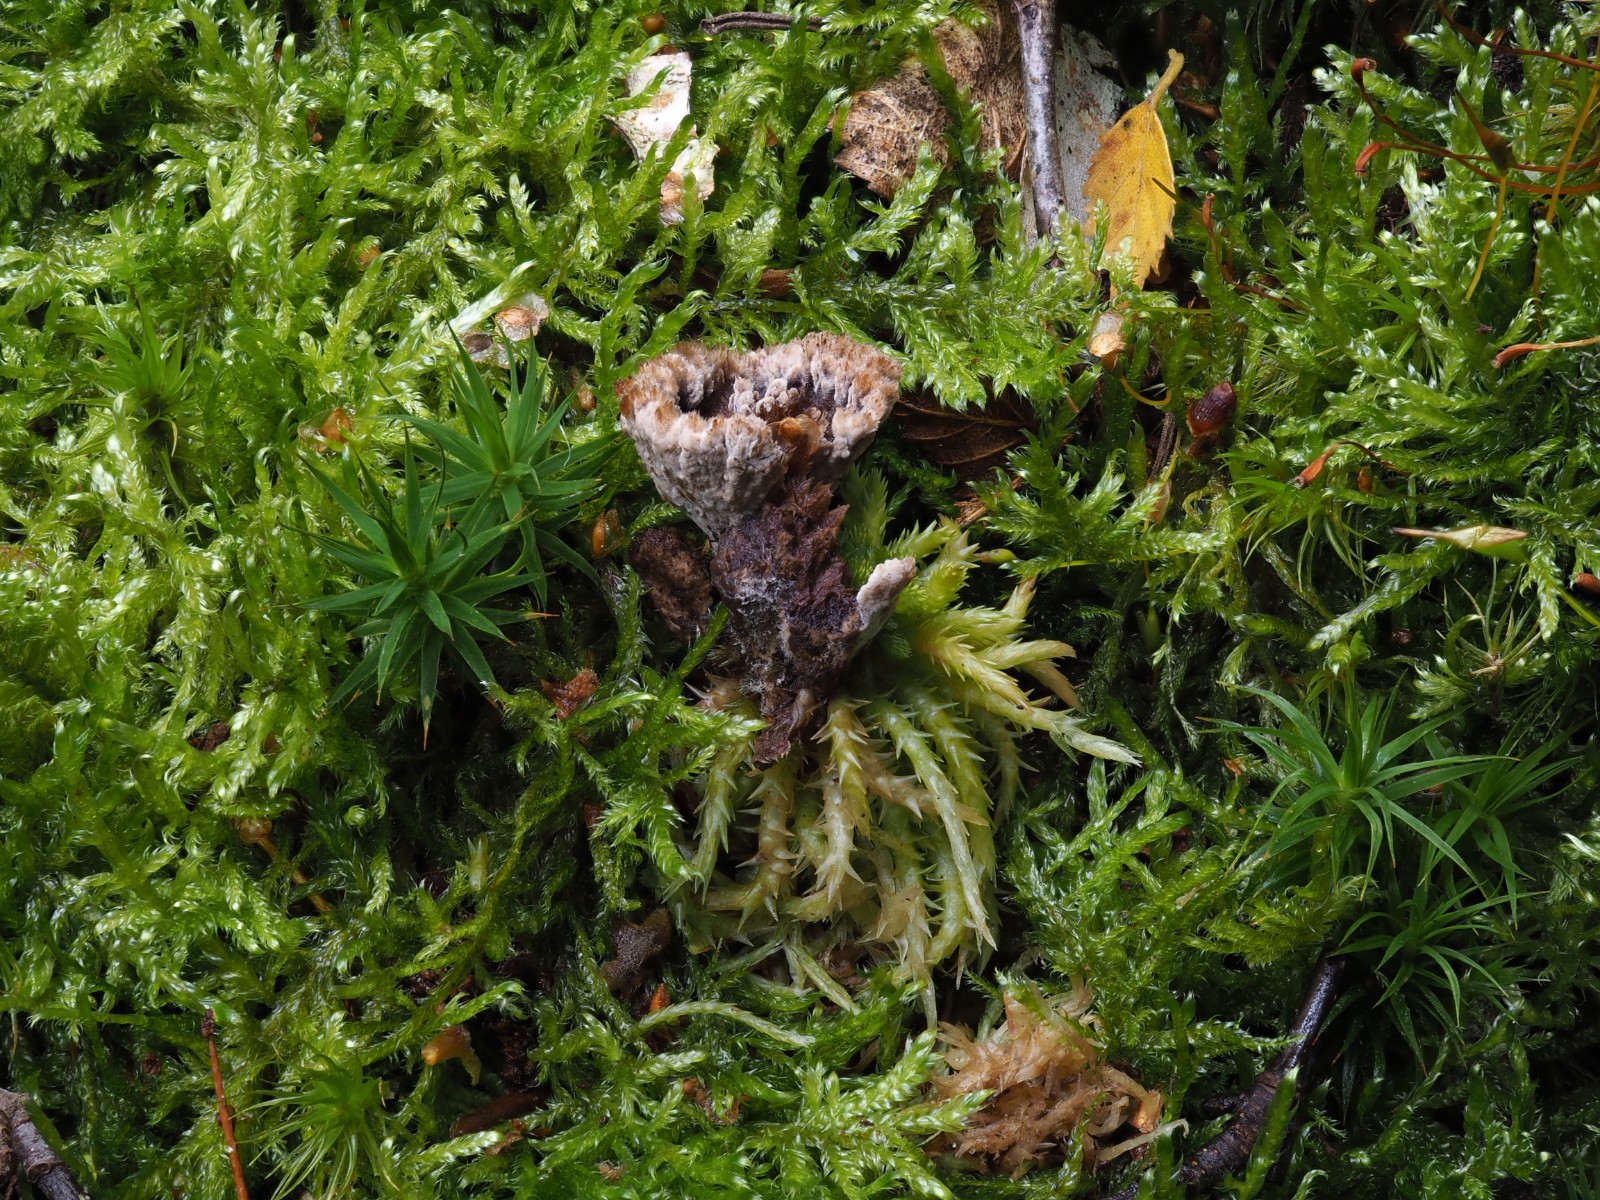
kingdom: Fungi
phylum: Basidiomycota
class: Agaricomycetes
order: Thelephorales
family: Thelephoraceae
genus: Thelephora
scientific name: Thelephora terrestris
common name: fliget frynsesvamp
